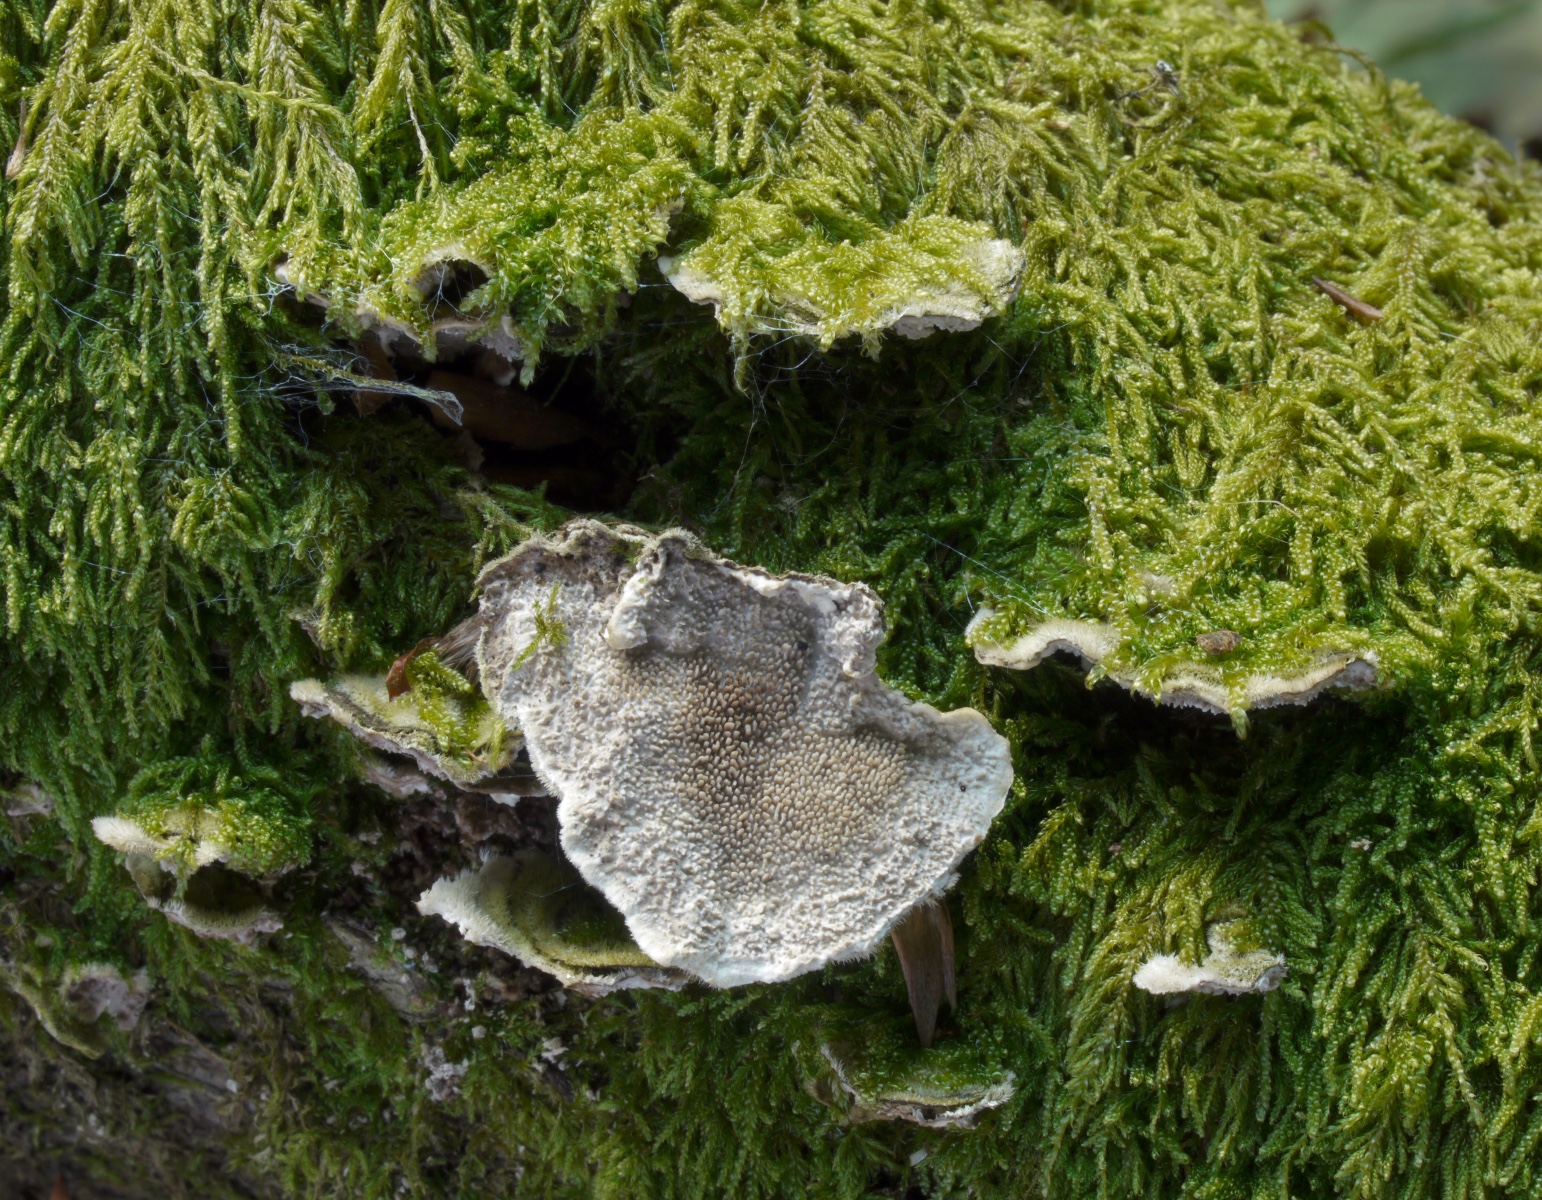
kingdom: Fungi
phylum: Basidiomycota
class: Agaricomycetes
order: Polyporales
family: Irpicaceae
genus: Irpex
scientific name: Irpex lacteus
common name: stor tandhat
